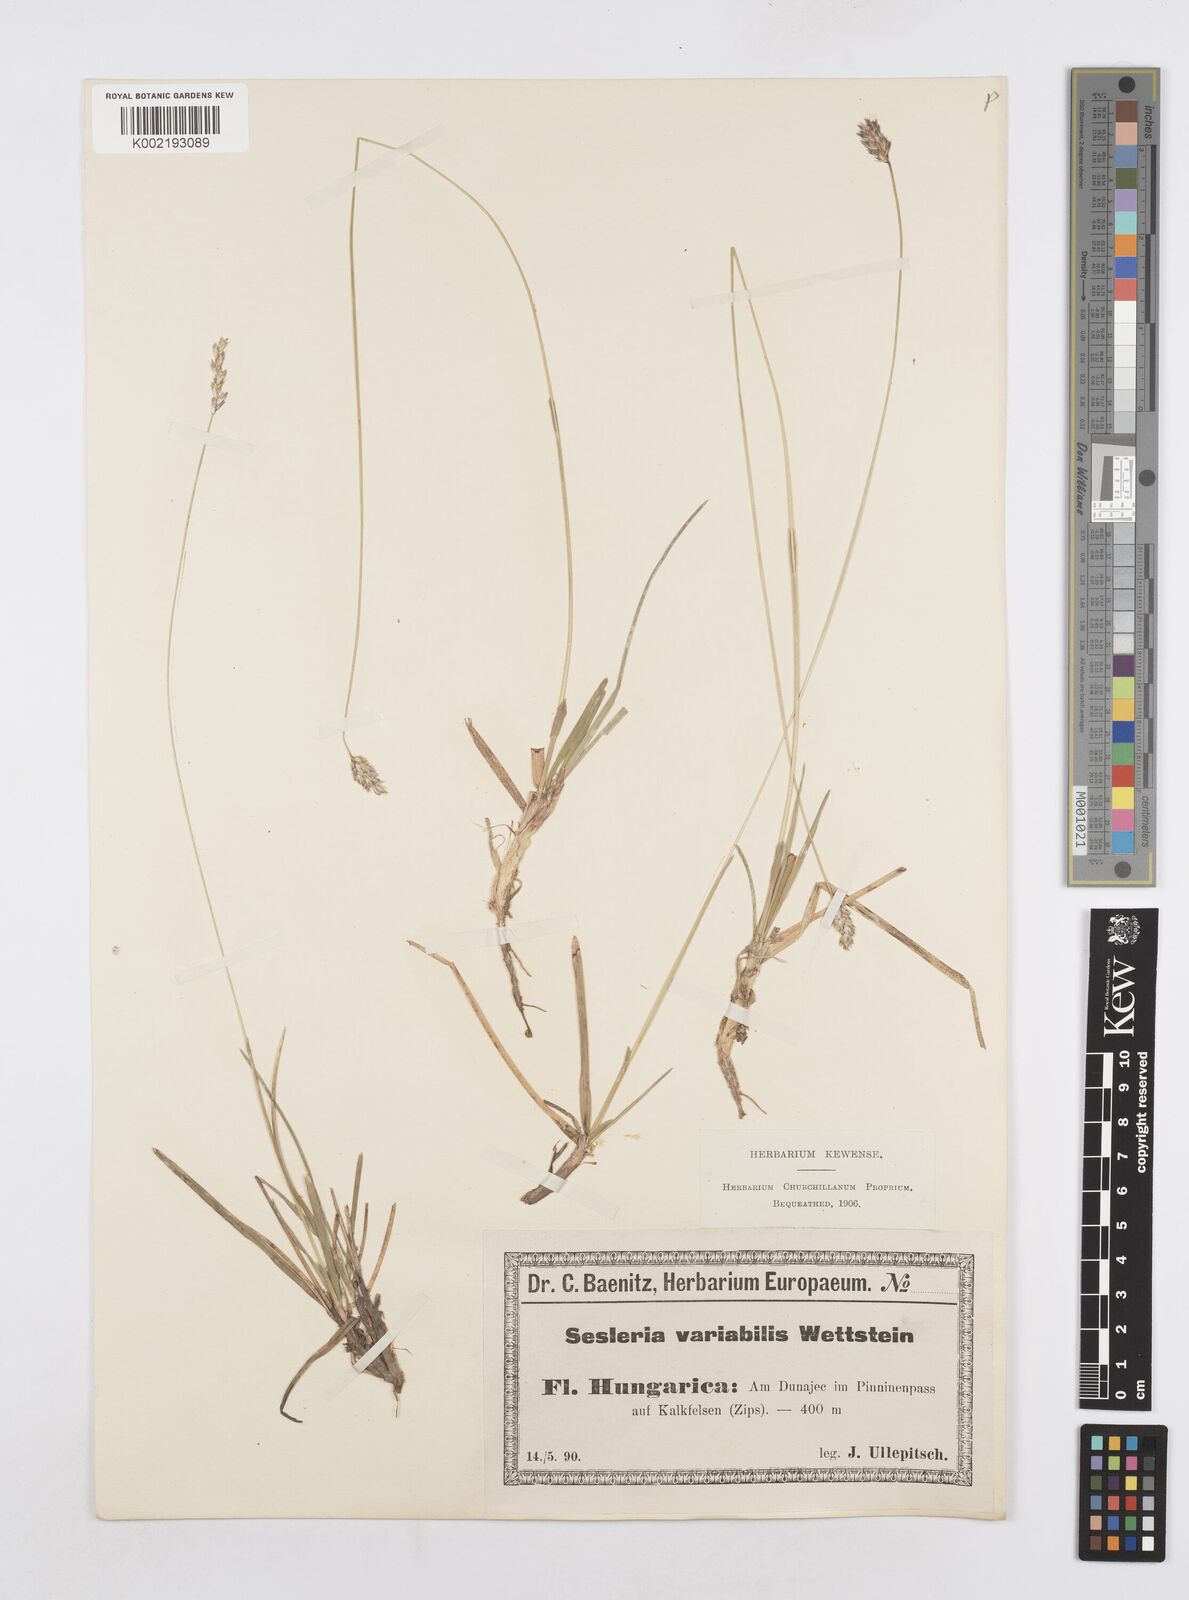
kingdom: Plantae
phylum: Tracheophyta
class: Liliopsida
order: Poales
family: Poaceae
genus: Sesleria
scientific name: Sesleria
